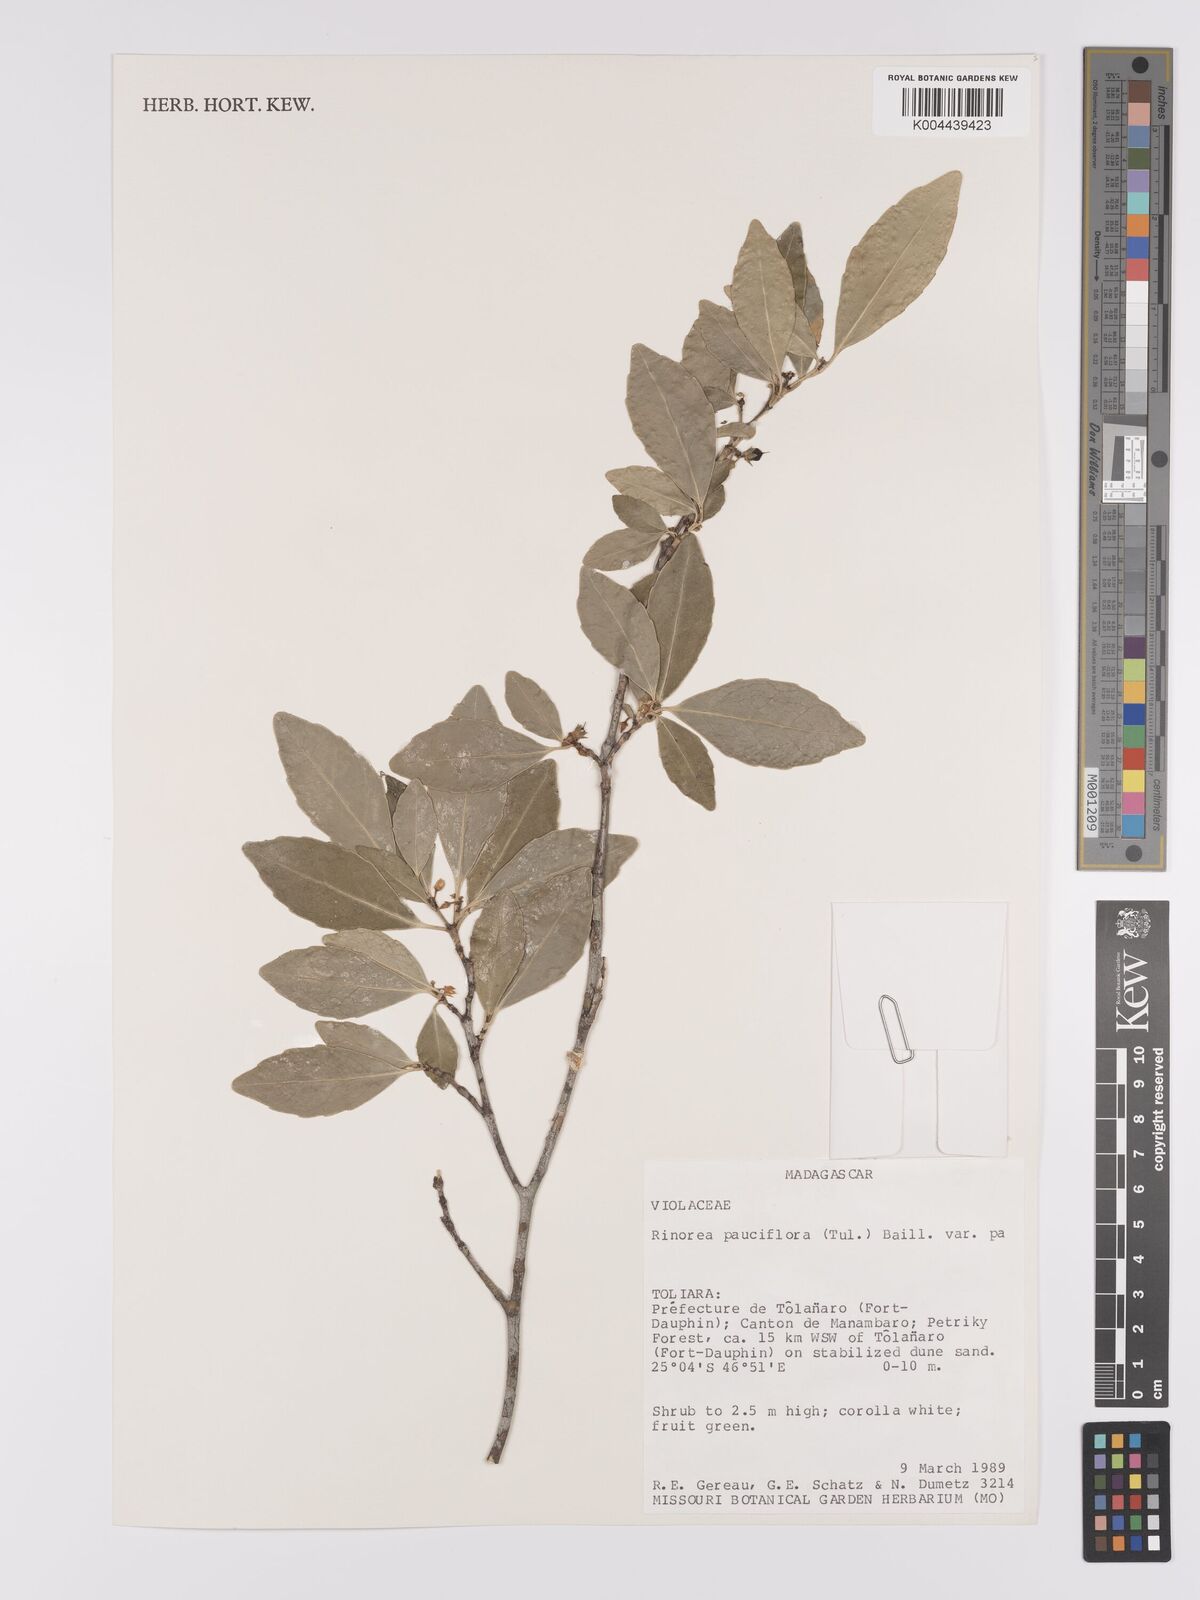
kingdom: Plantae
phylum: Tracheophyta
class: Magnoliopsida
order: Malpighiales
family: Violaceae
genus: Rinorea
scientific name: Rinorea pauciflora
